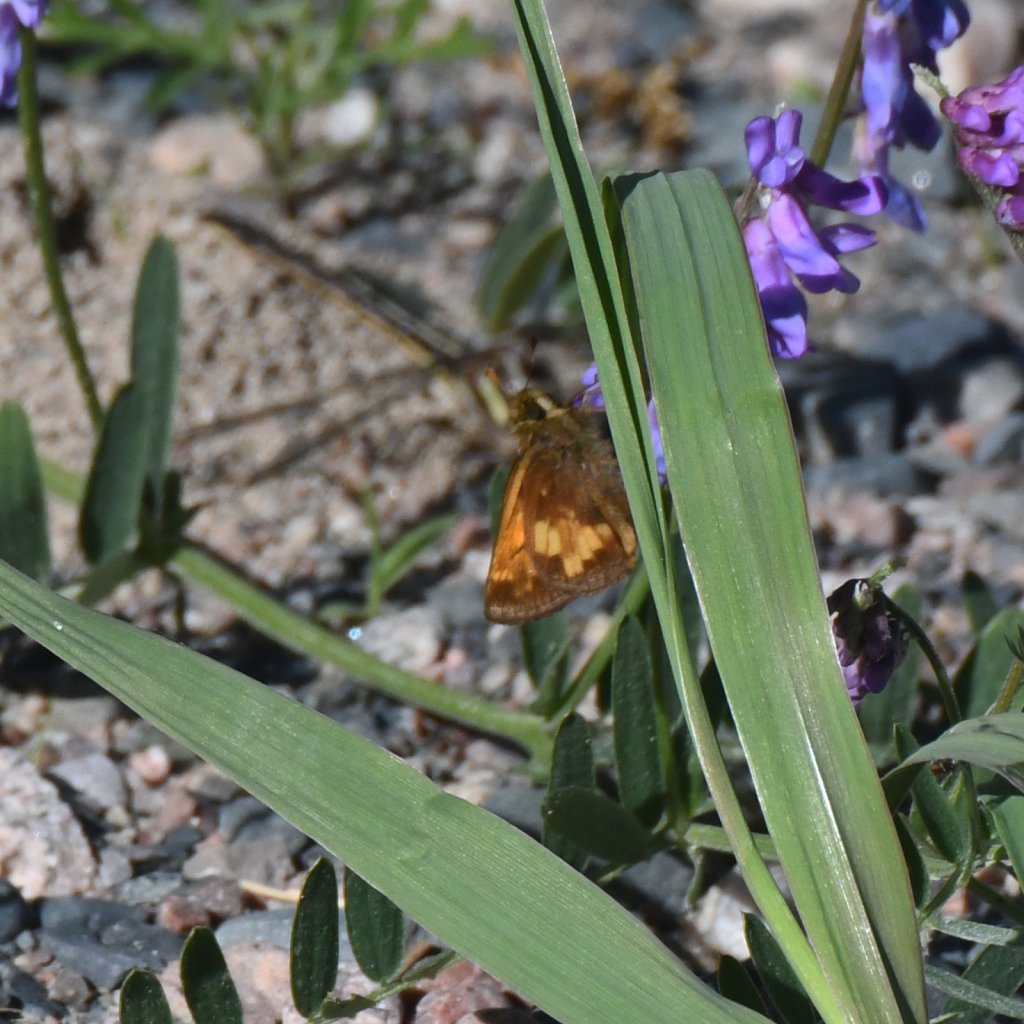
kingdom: Animalia
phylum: Arthropoda
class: Insecta
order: Lepidoptera
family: Hesperiidae
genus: Lon
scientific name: Lon hobomok
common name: Hobomok Skipper
